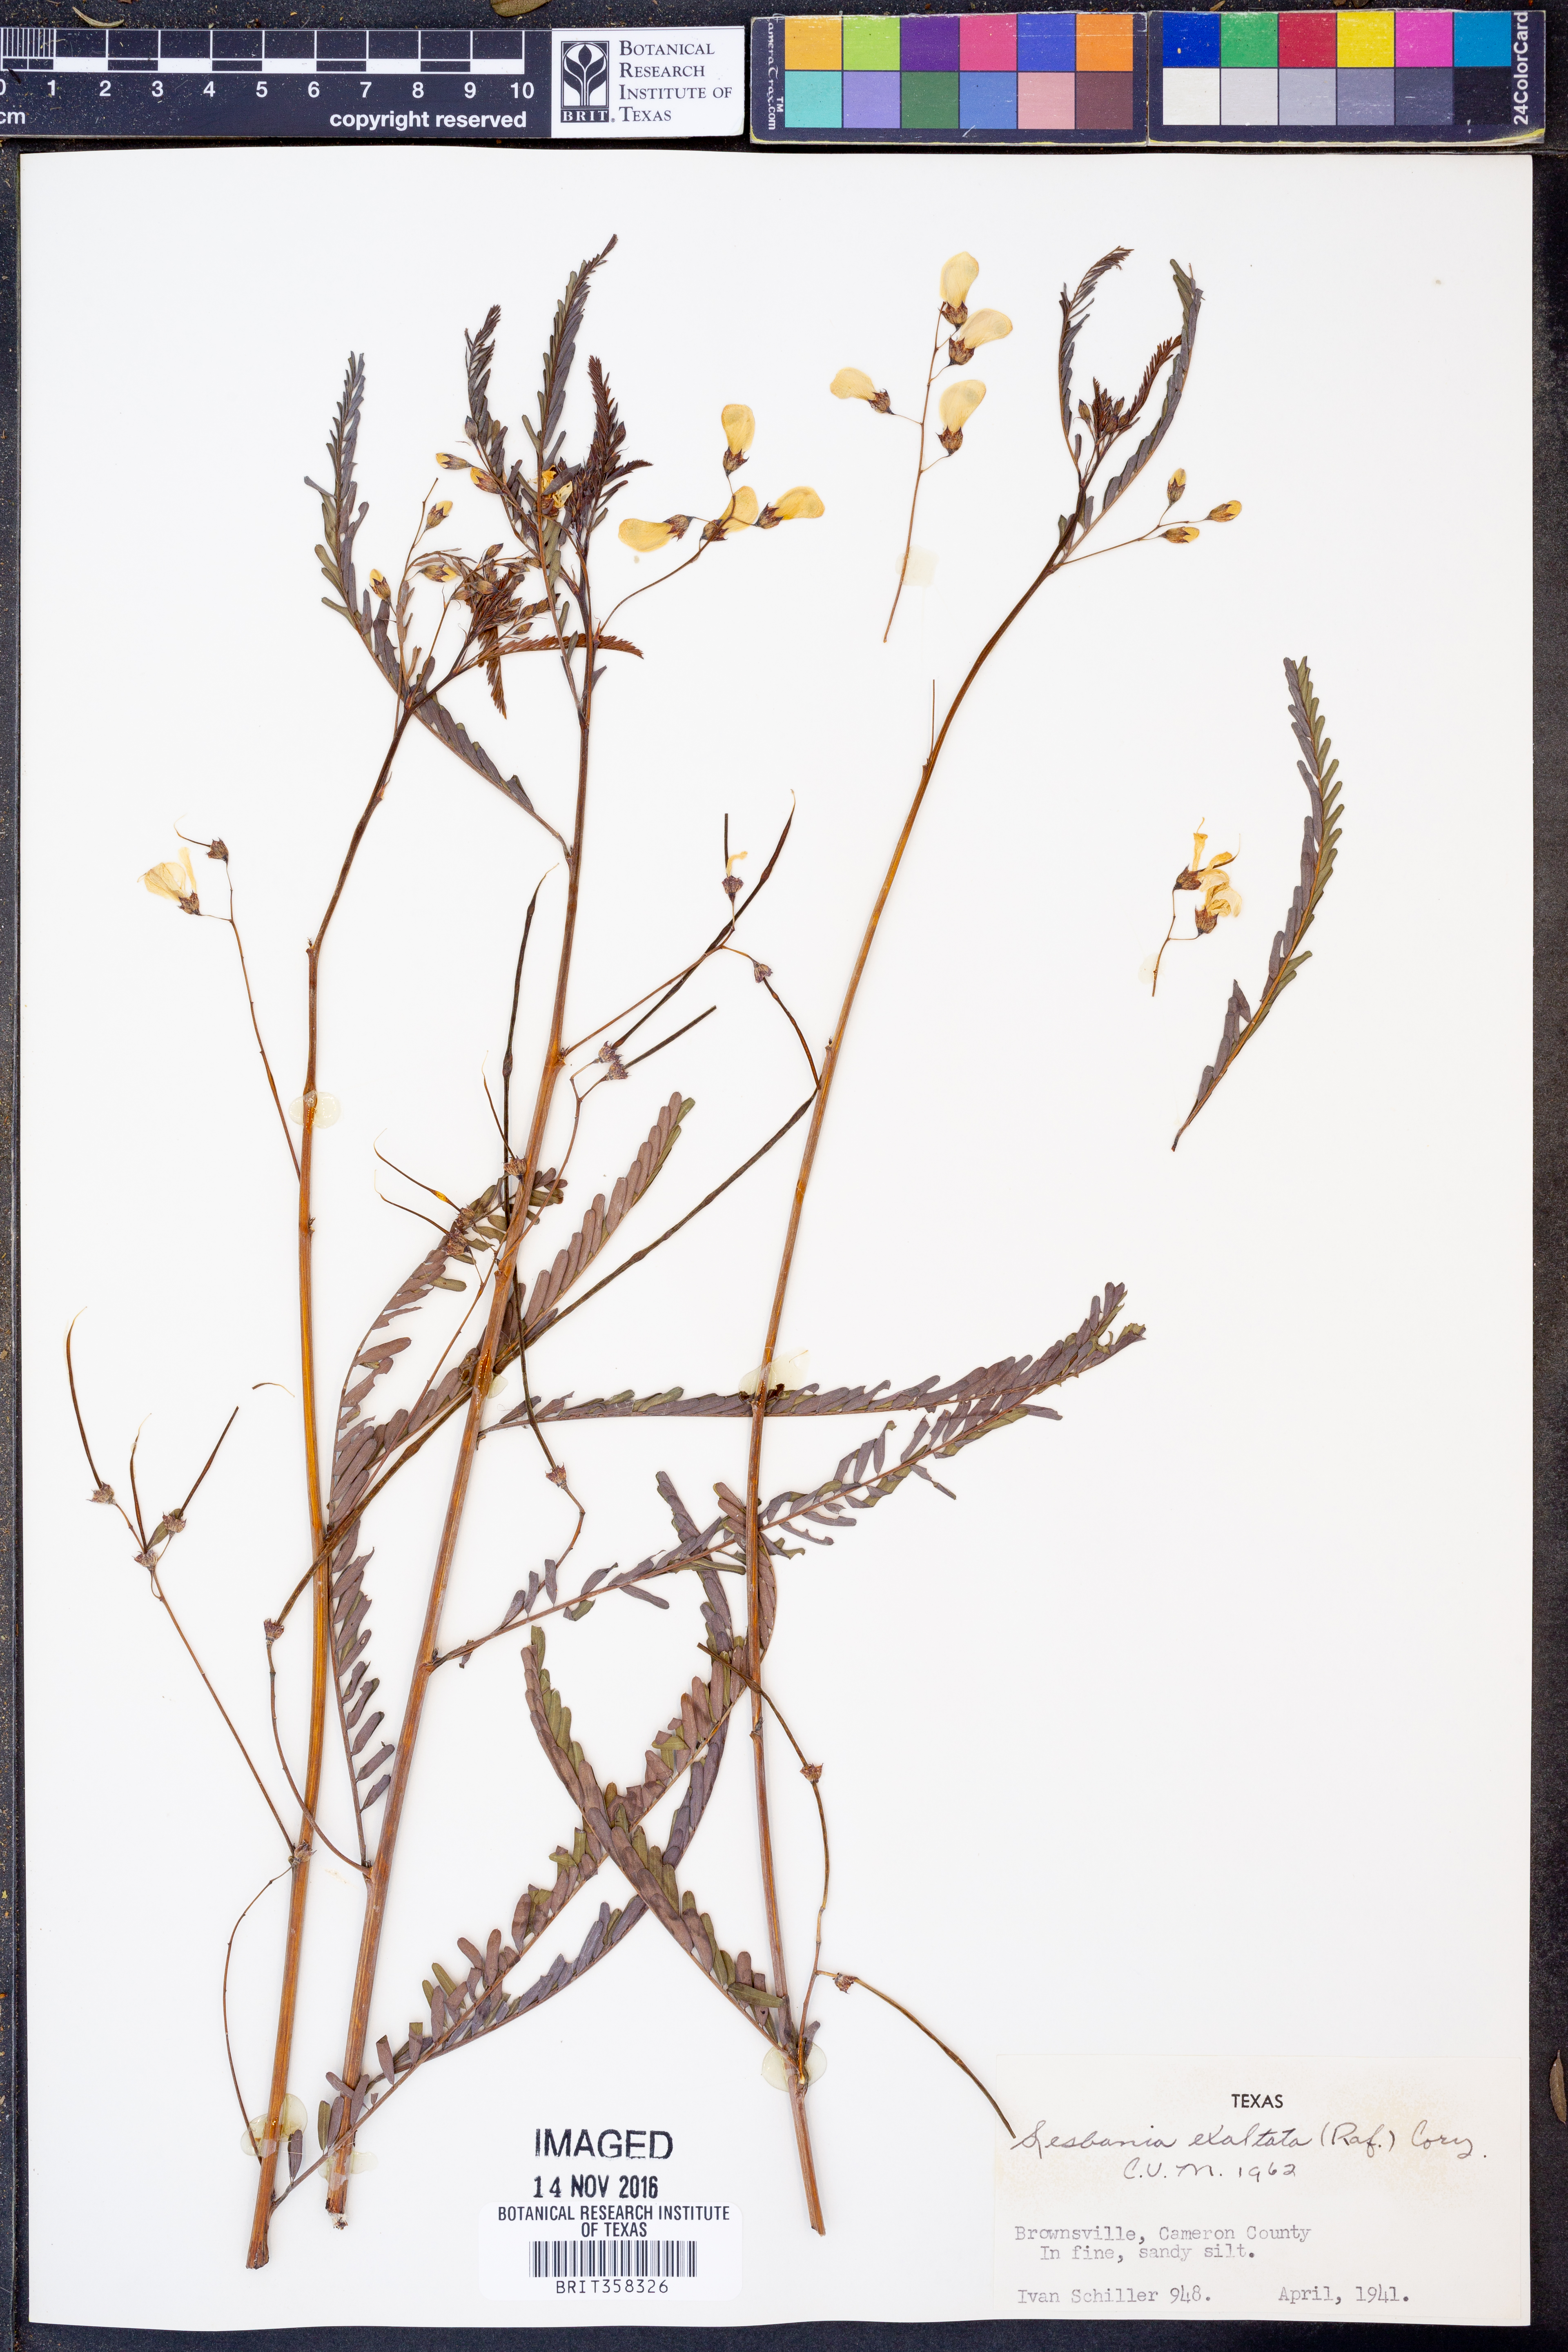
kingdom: Plantae
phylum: Tracheophyta
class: Magnoliopsida
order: Fabales
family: Fabaceae
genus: Sesbania
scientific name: Sesbania herbacea
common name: Bigpod sesbania
